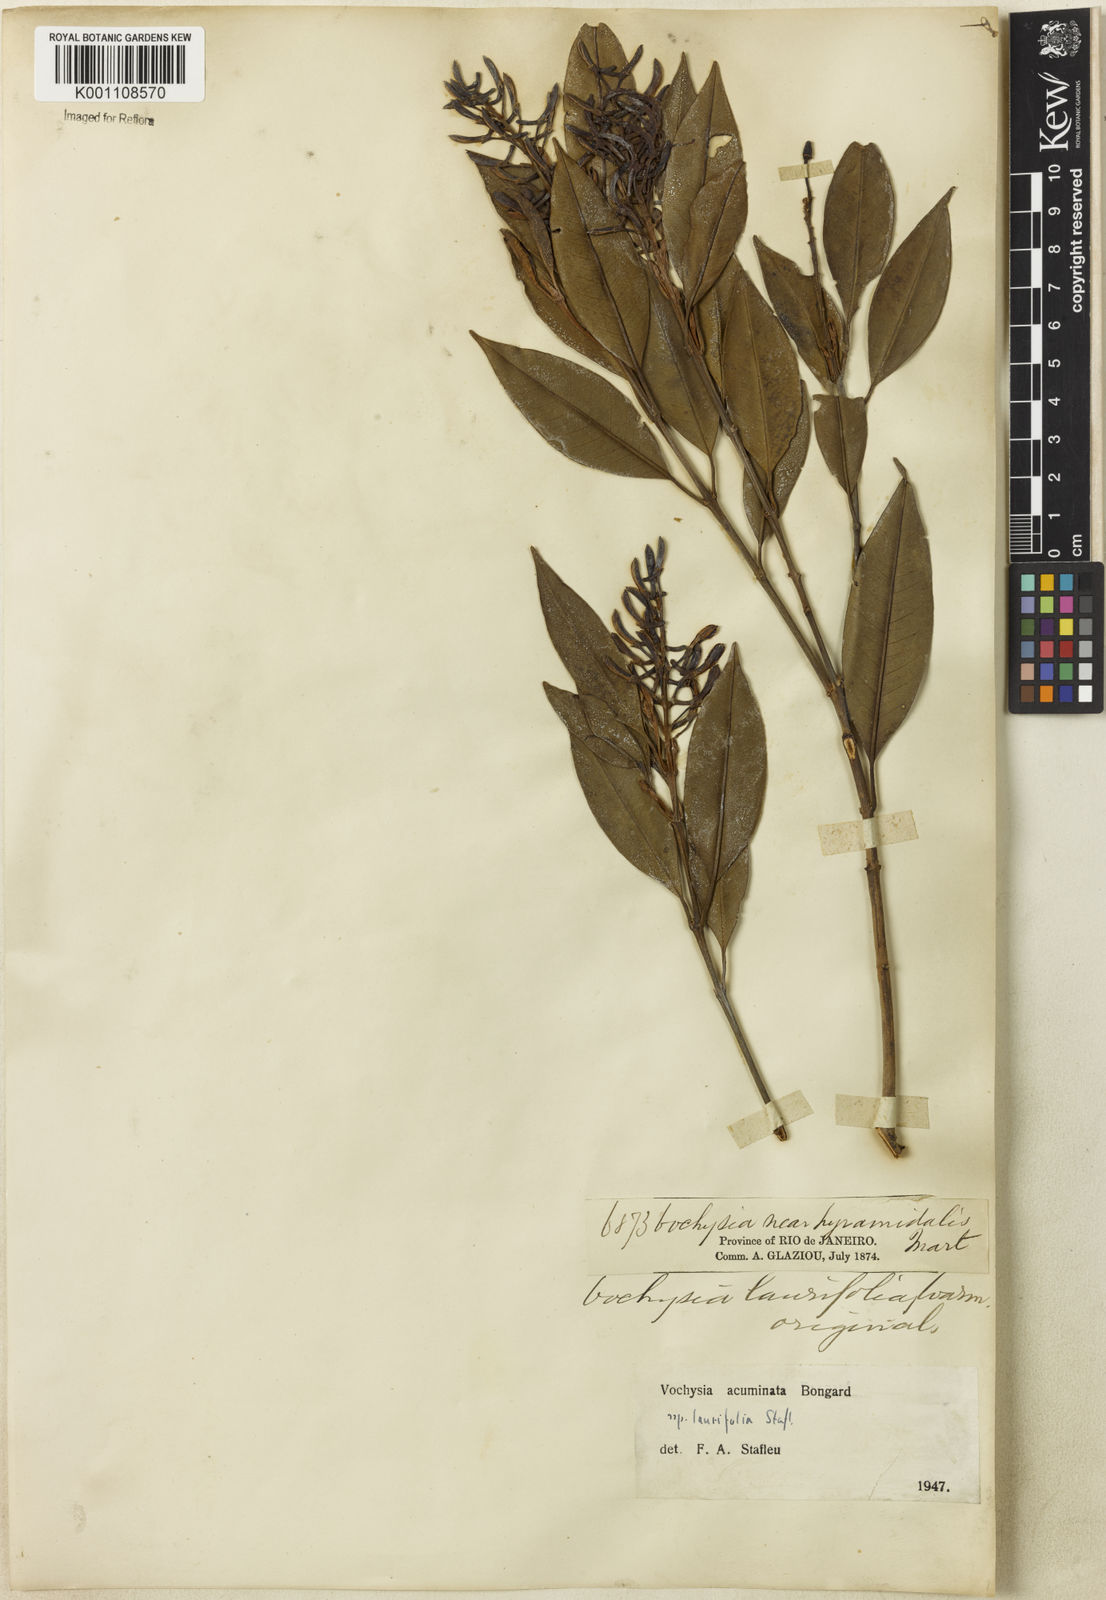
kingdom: Plantae
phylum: Tracheophyta
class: Magnoliopsida
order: Myrtales
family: Vochysiaceae
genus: Vochysia
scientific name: Vochysia laurifolia
